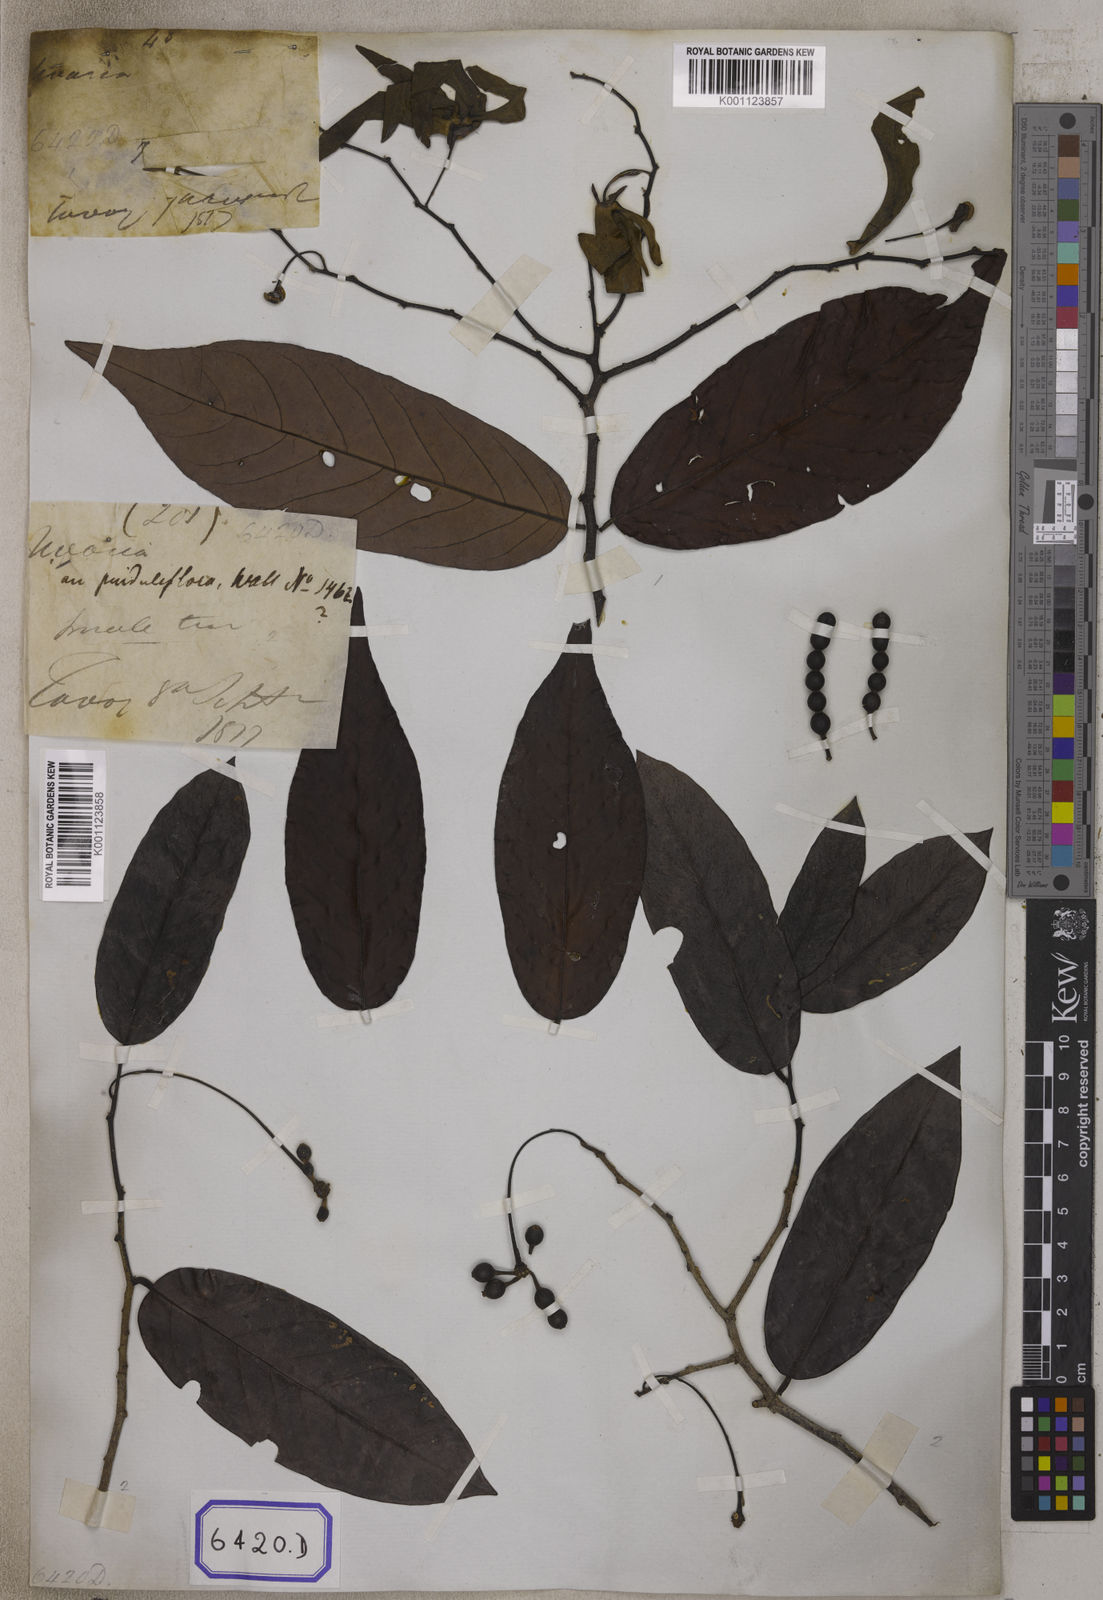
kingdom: Plantae
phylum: Tracheophyta
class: Magnoliopsida
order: Magnoliales
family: Annonaceae
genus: Desmos
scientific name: Desmos chinensis
